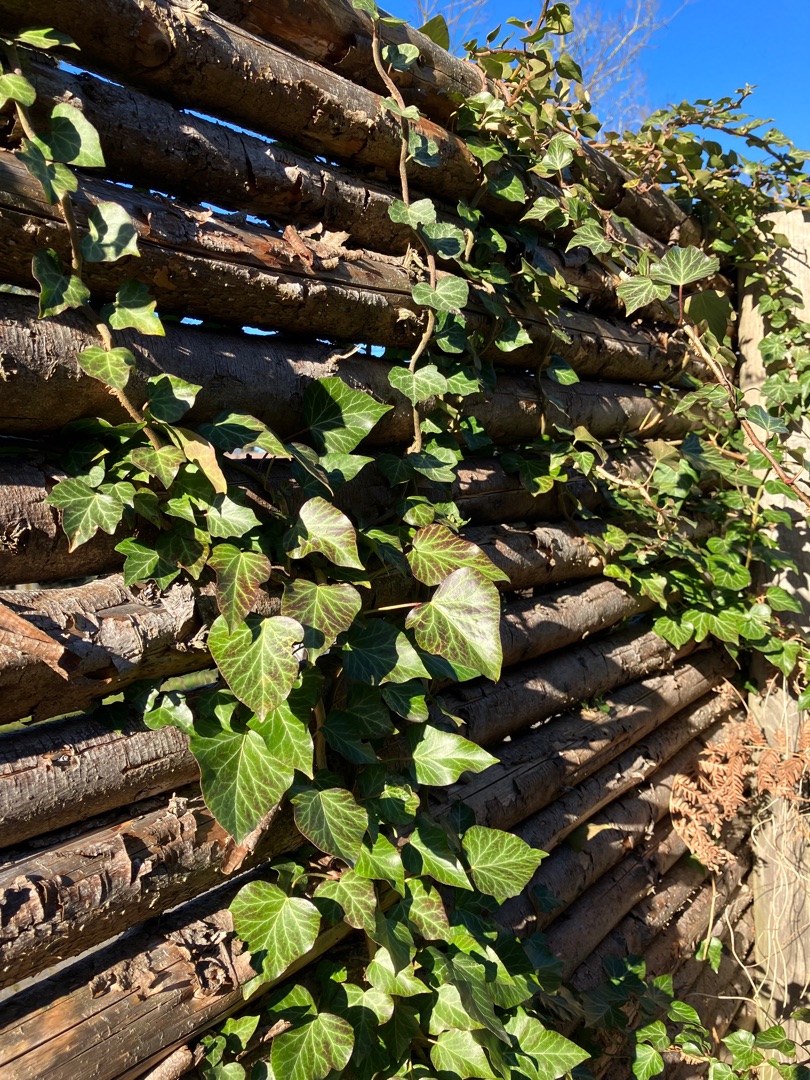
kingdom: Plantae
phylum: Tracheophyta
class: Magnoliopsida
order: Apiales
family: Araliaceae
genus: Hedera
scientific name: Hedera helix
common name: Vedbend
